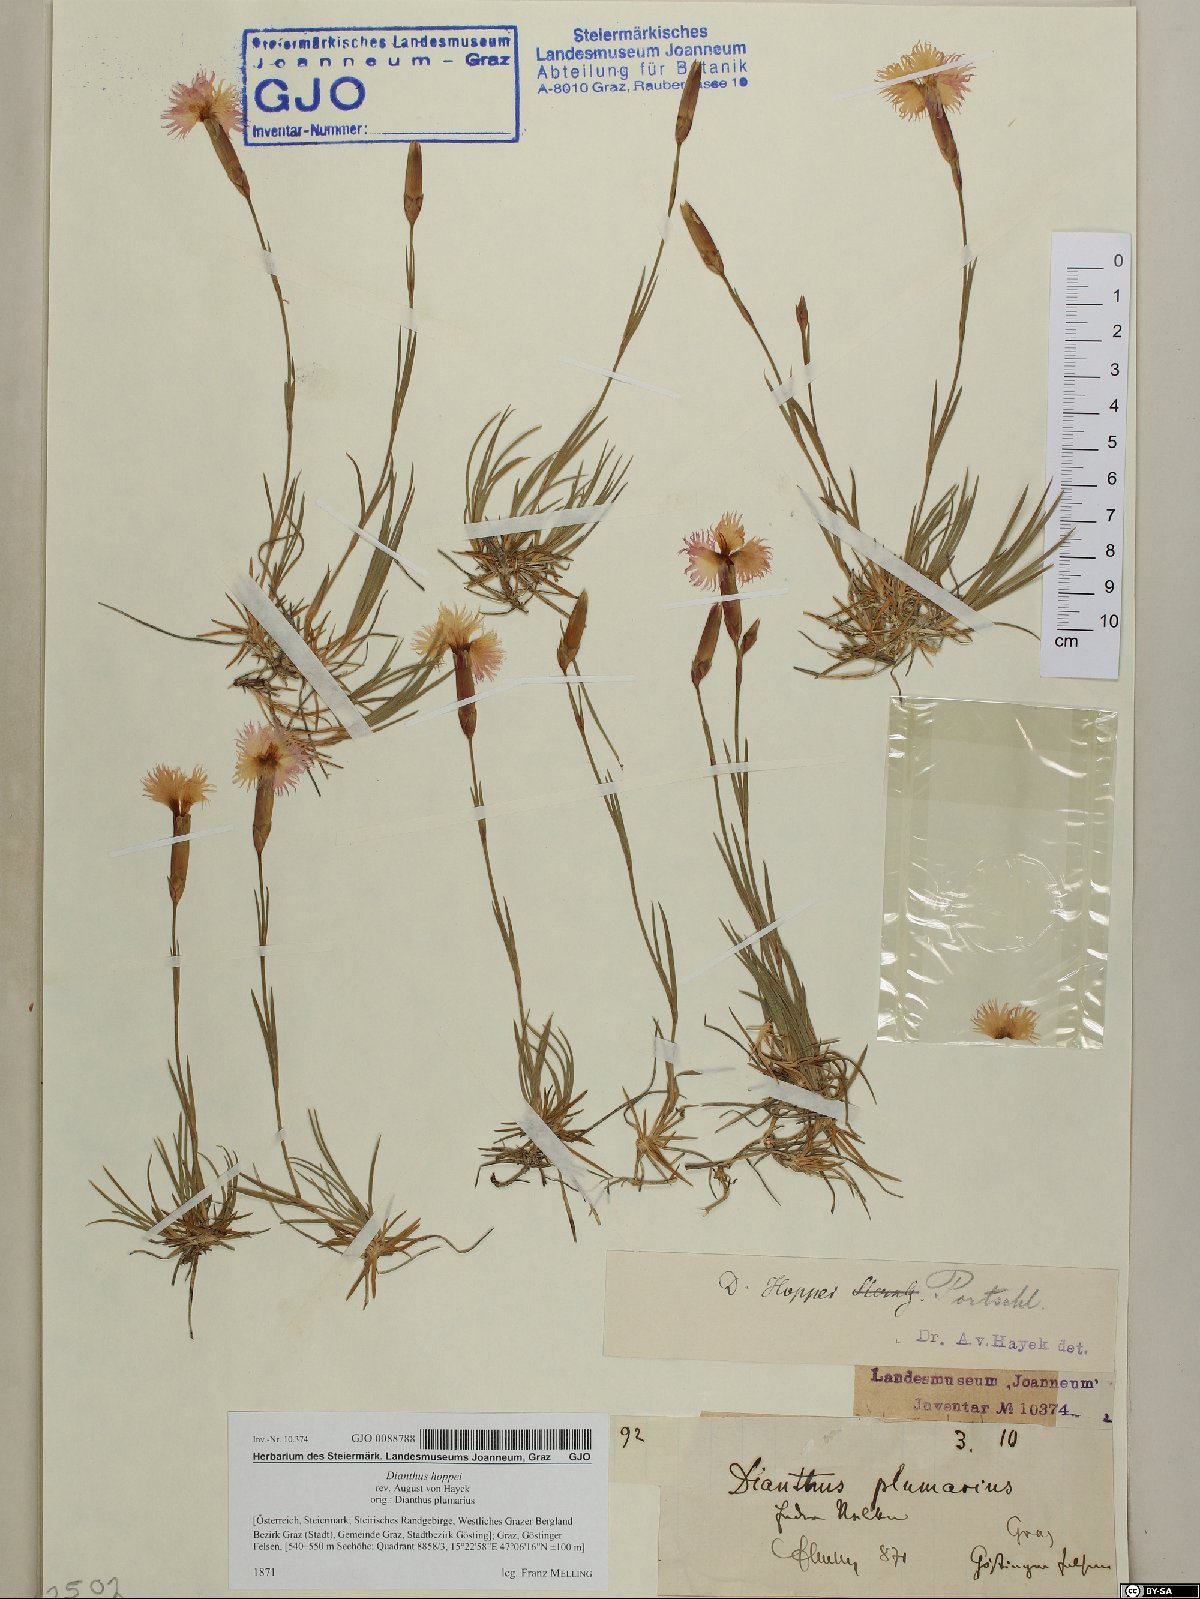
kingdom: Plantae
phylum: Tracheophyta
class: Magnoliopsida
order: Caryophyllales
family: Caryophyllaceae
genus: Dianthus
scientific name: Dianthus plumarius
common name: Pink
